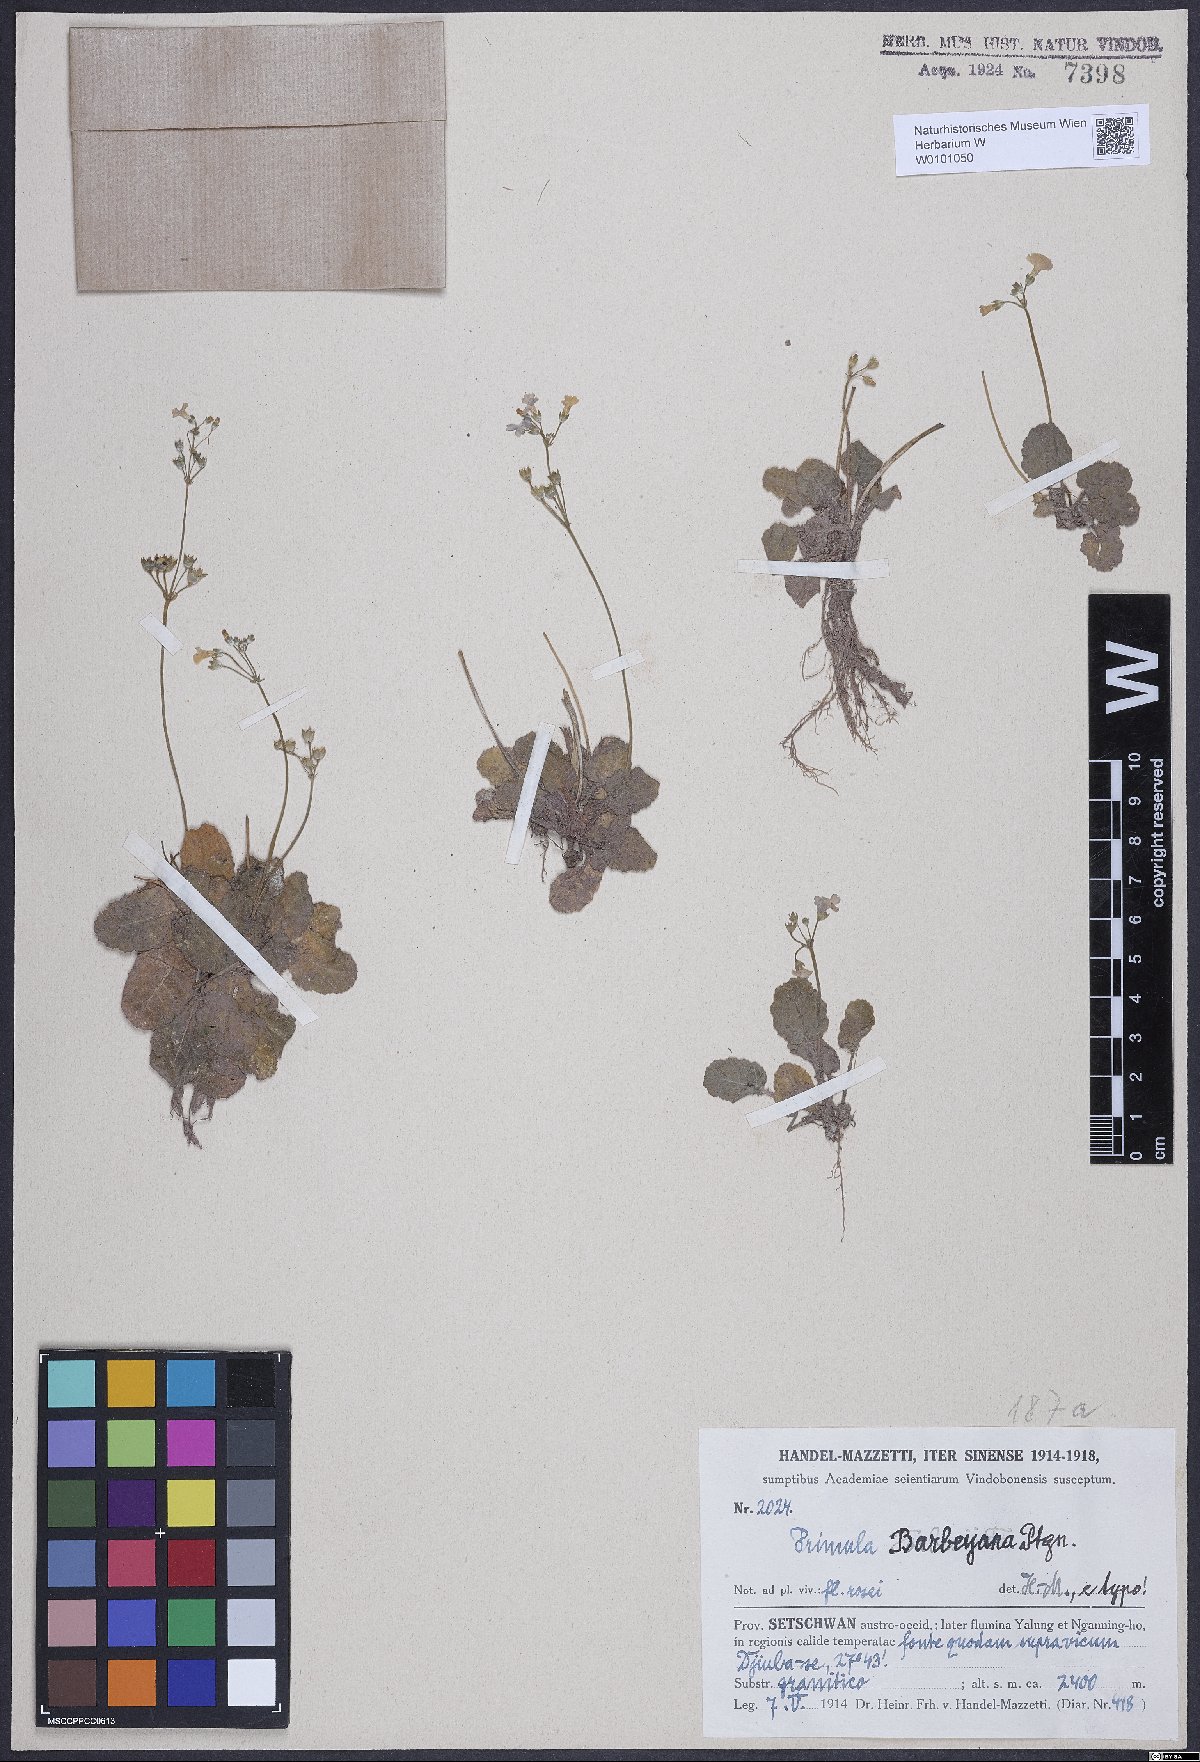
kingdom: Plantae
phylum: Tracheophyta
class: Magnoliopsida
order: Ericales
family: Primulaceae
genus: Primula
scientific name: Primula filipes
